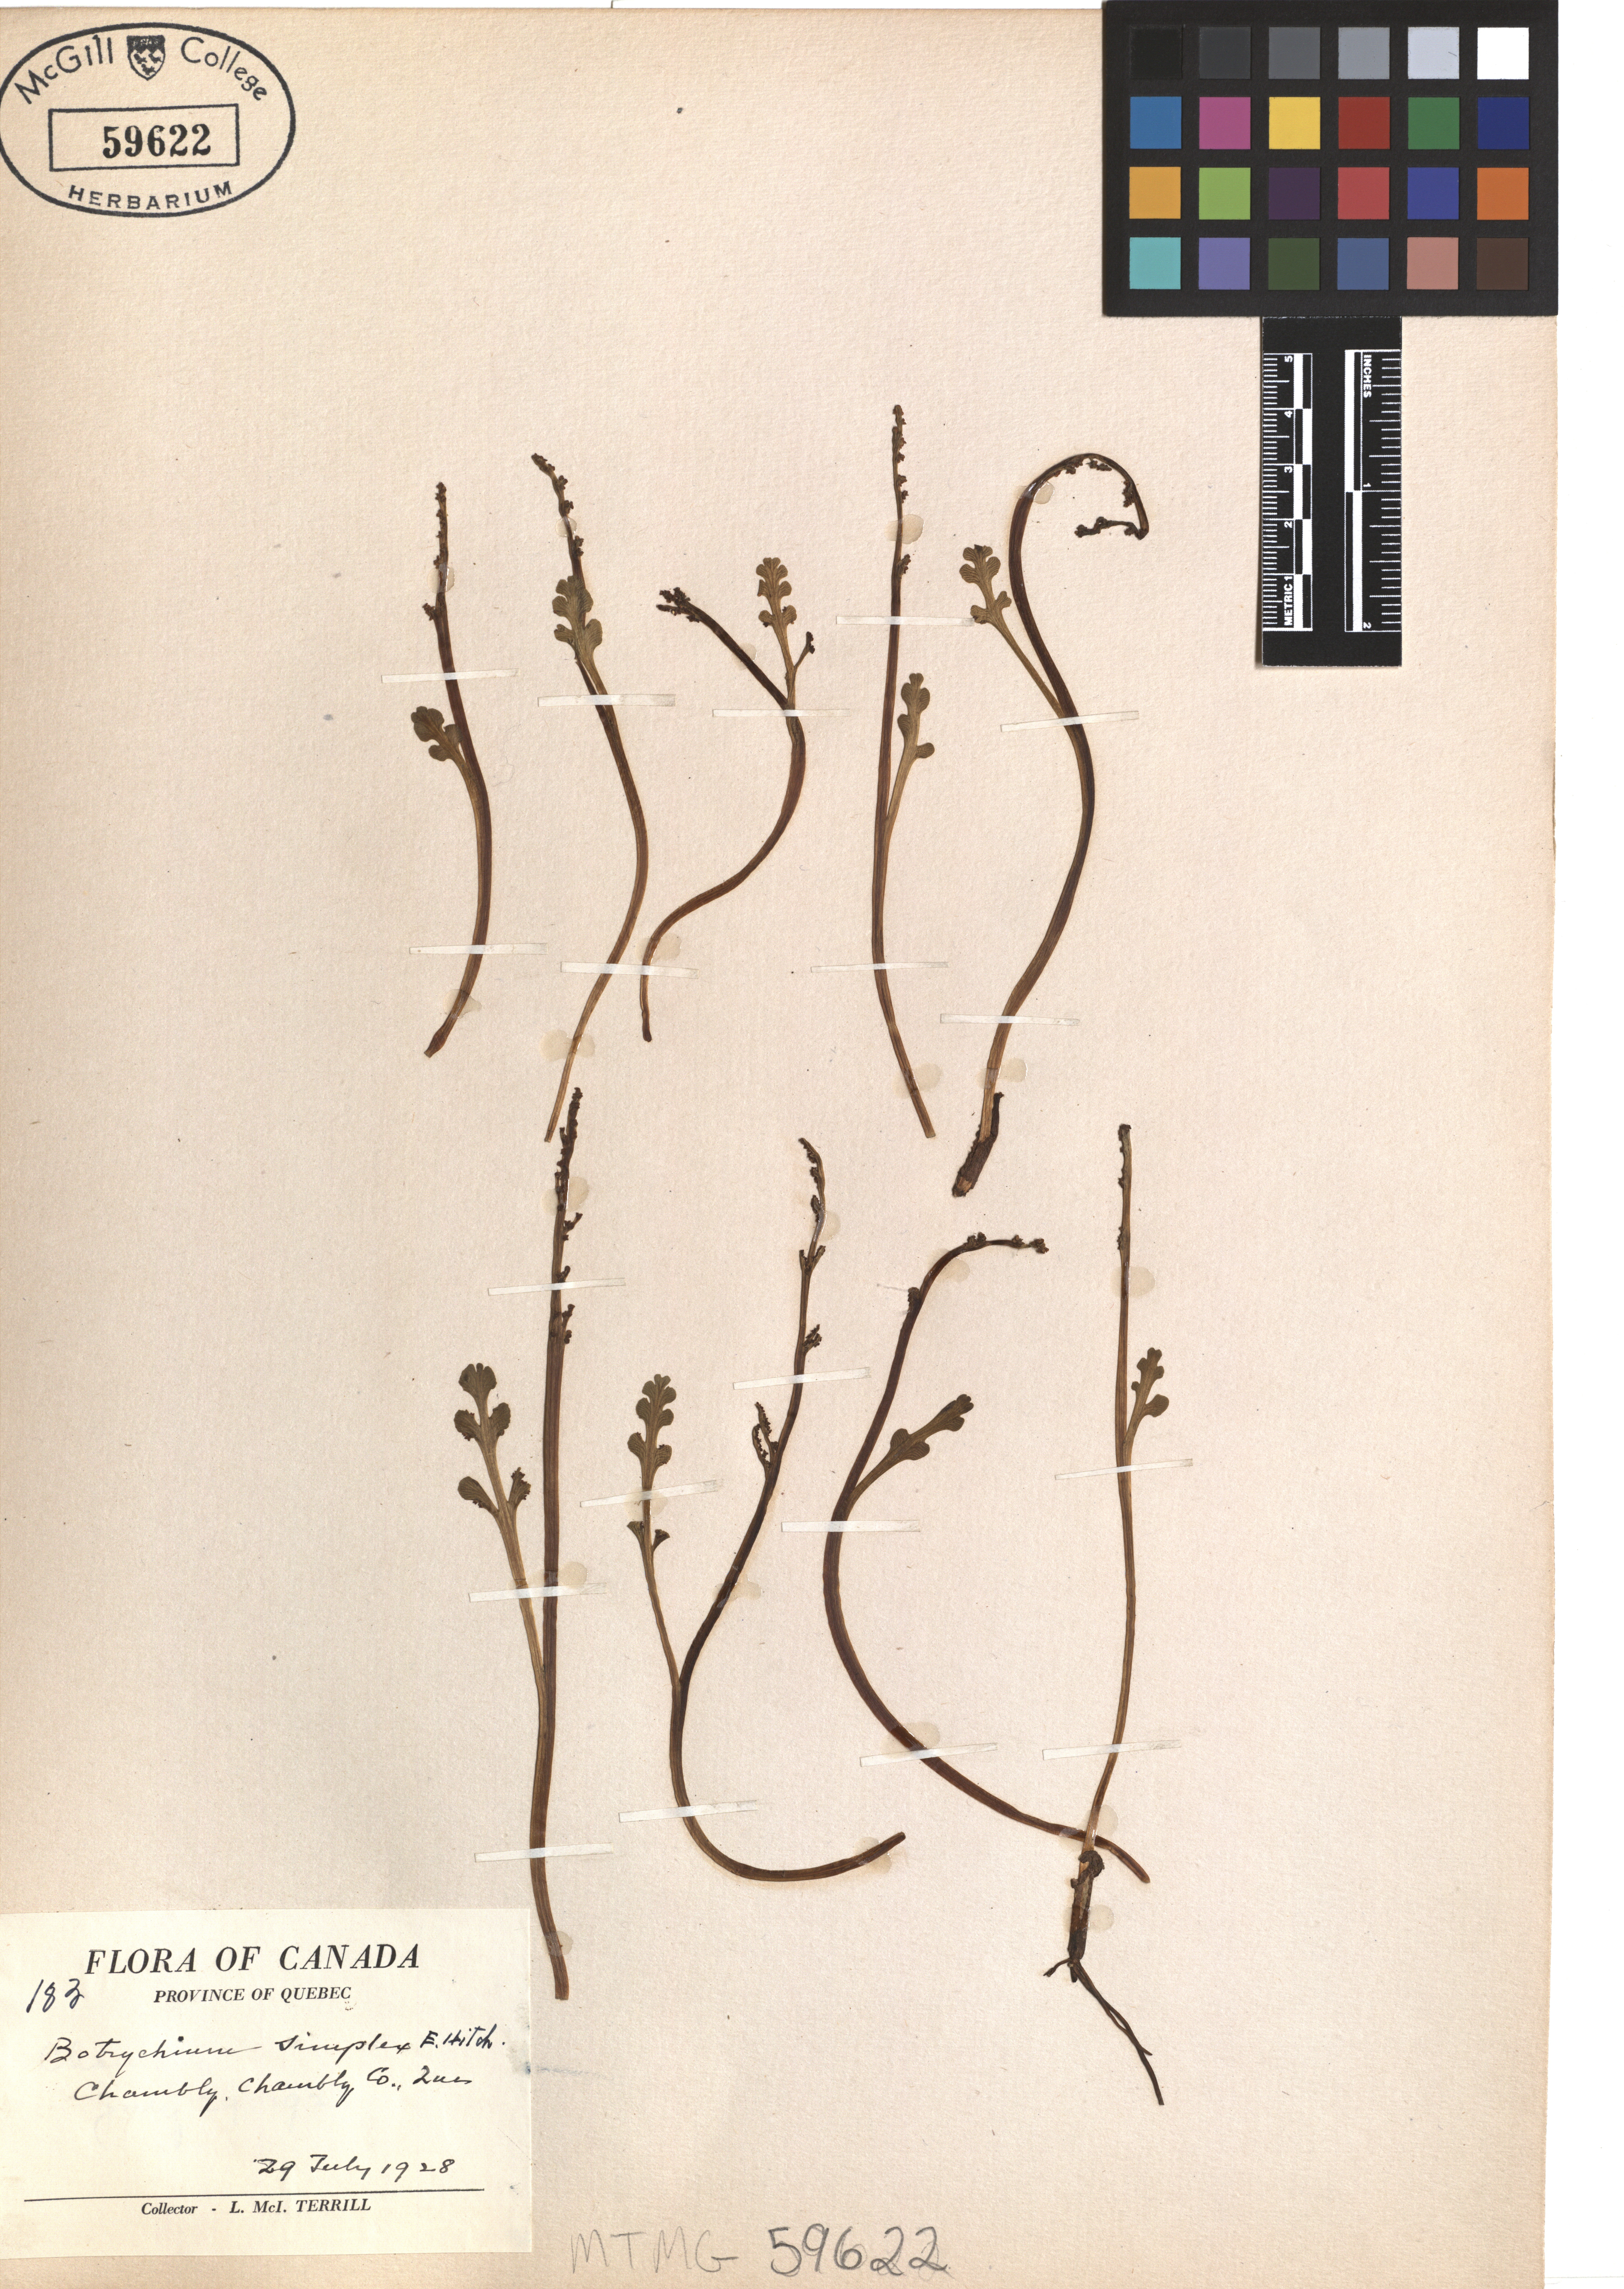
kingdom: Plantae
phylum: Tracheophyta
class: Polypodiopsida
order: Ophioglossales
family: Ophioglossaceae
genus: Botrychium
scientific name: Botrychium simplex
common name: Least moonwort
